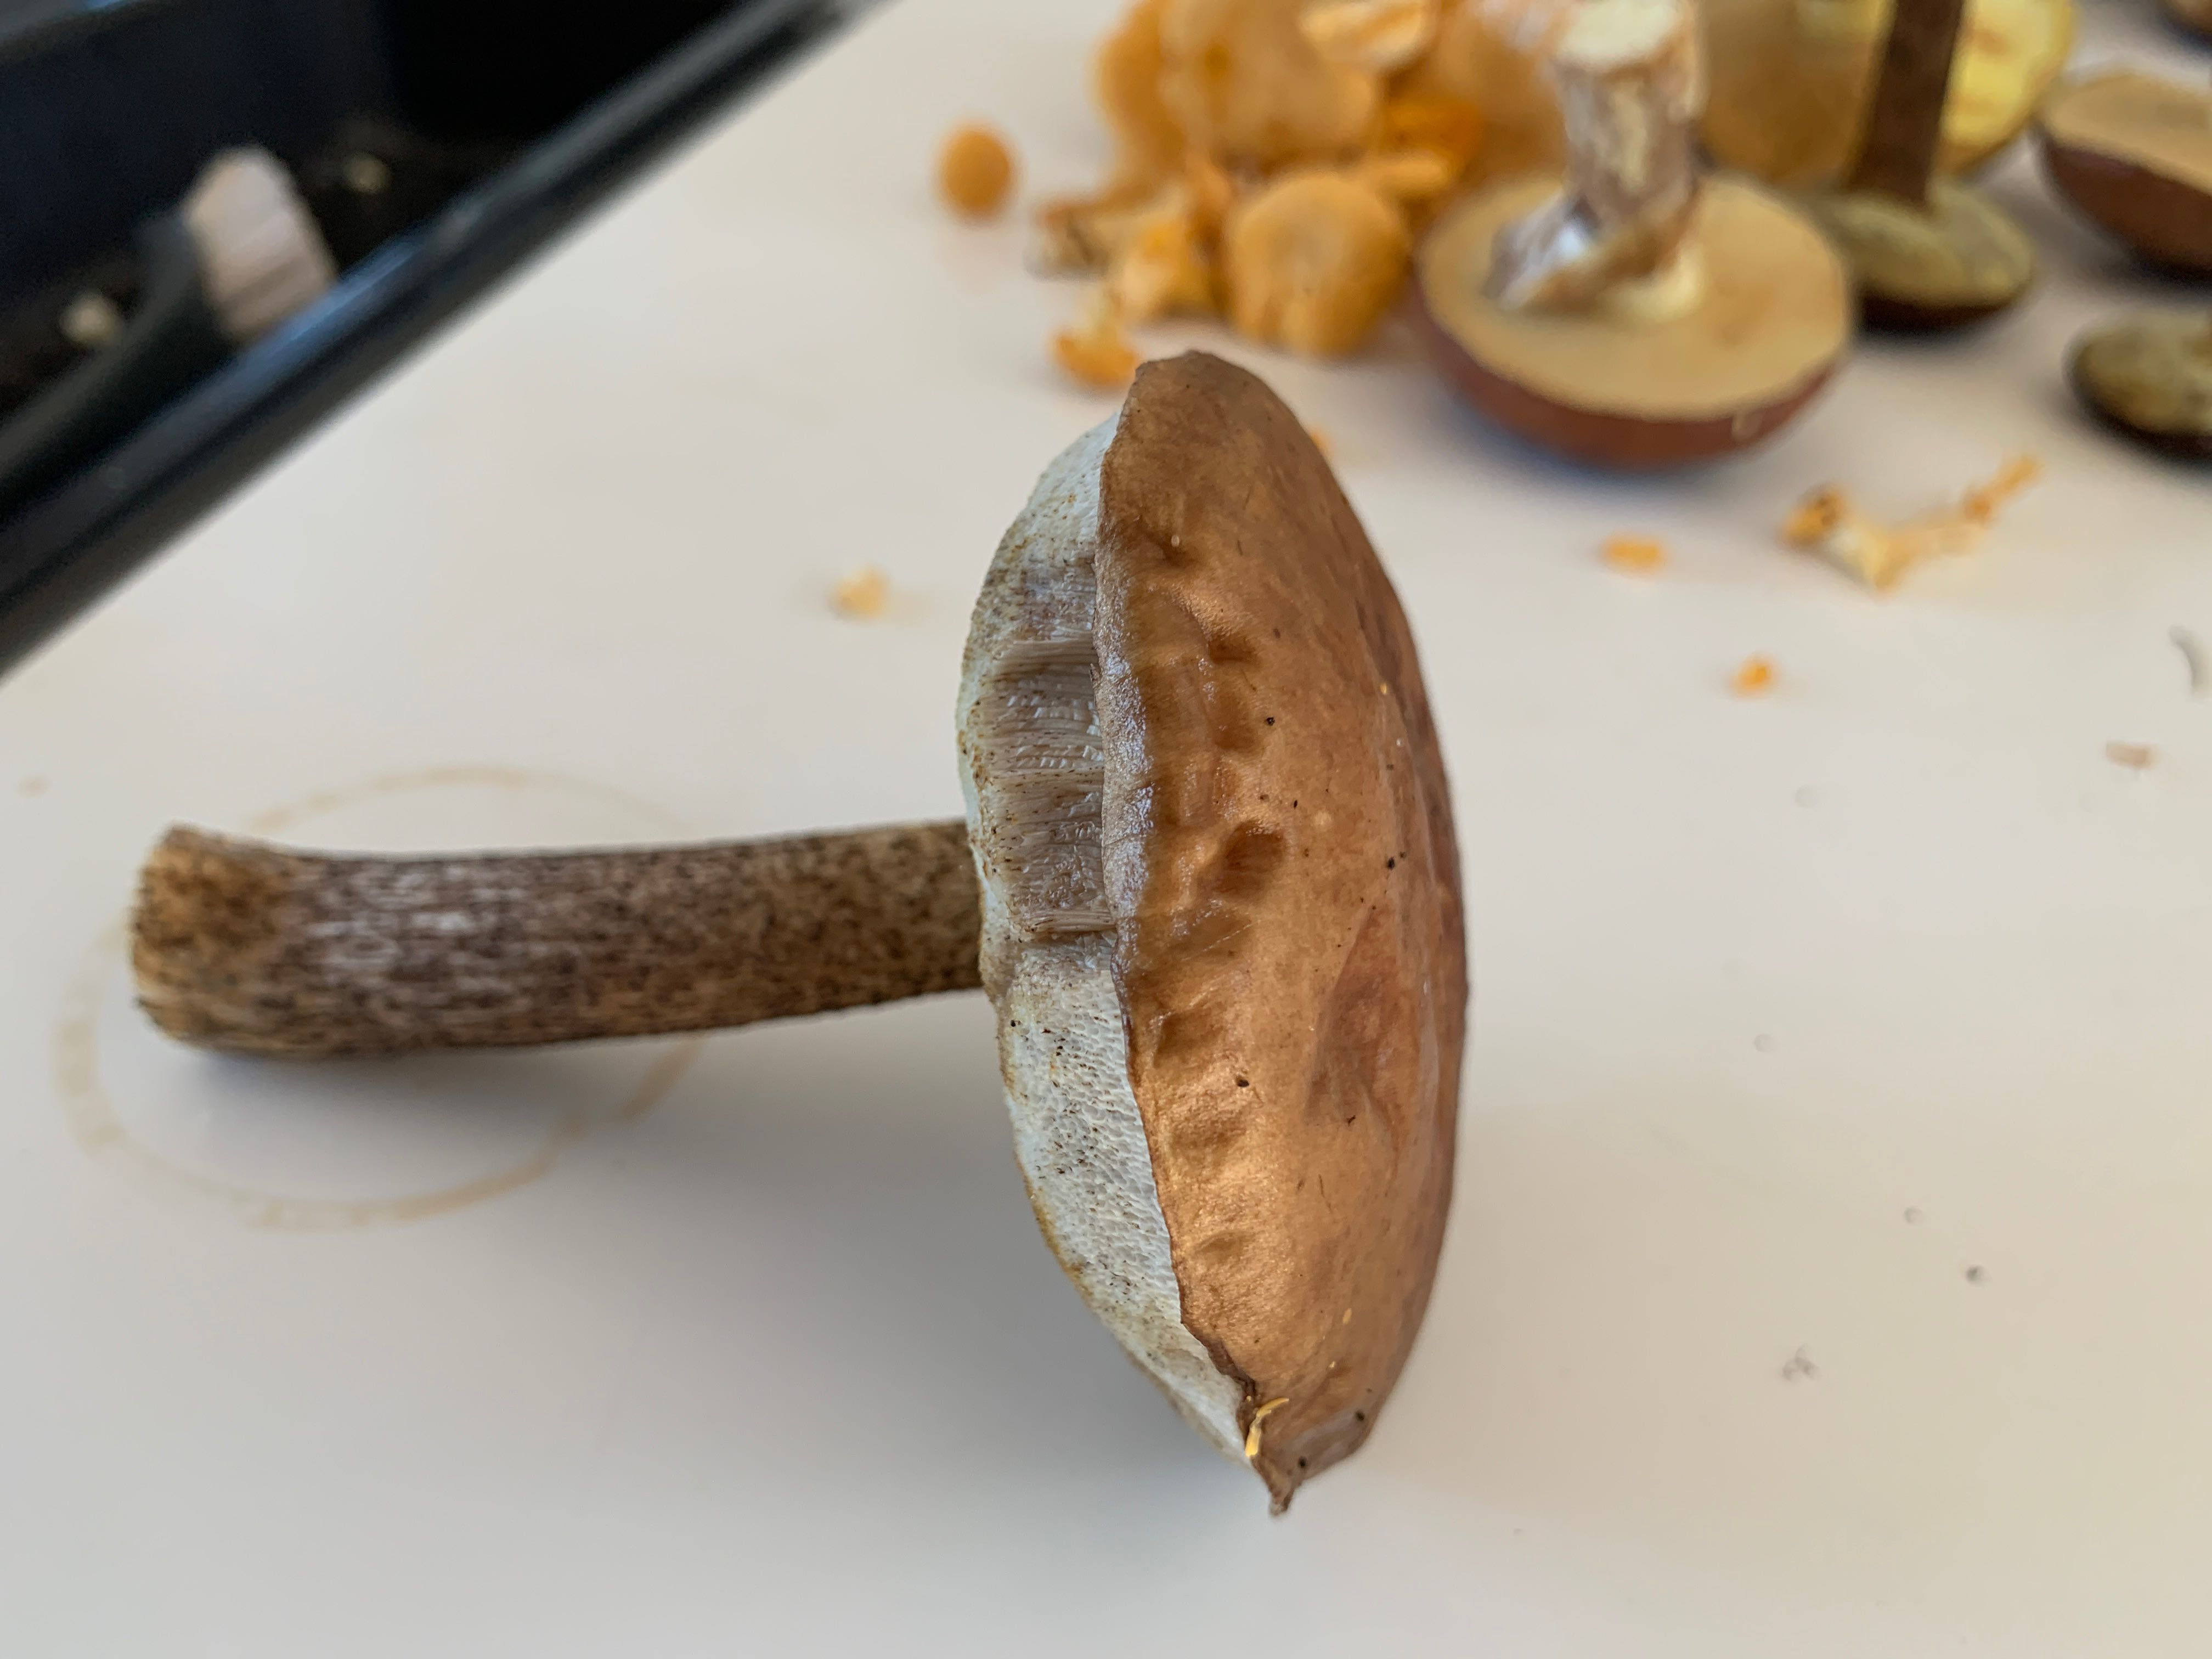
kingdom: Fungi
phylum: Basidiomycota
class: Agaricomycetes
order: Boletales
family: Boletaceae
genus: Leccinum
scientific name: Leccinum scabrum
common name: brun skælrørhat
